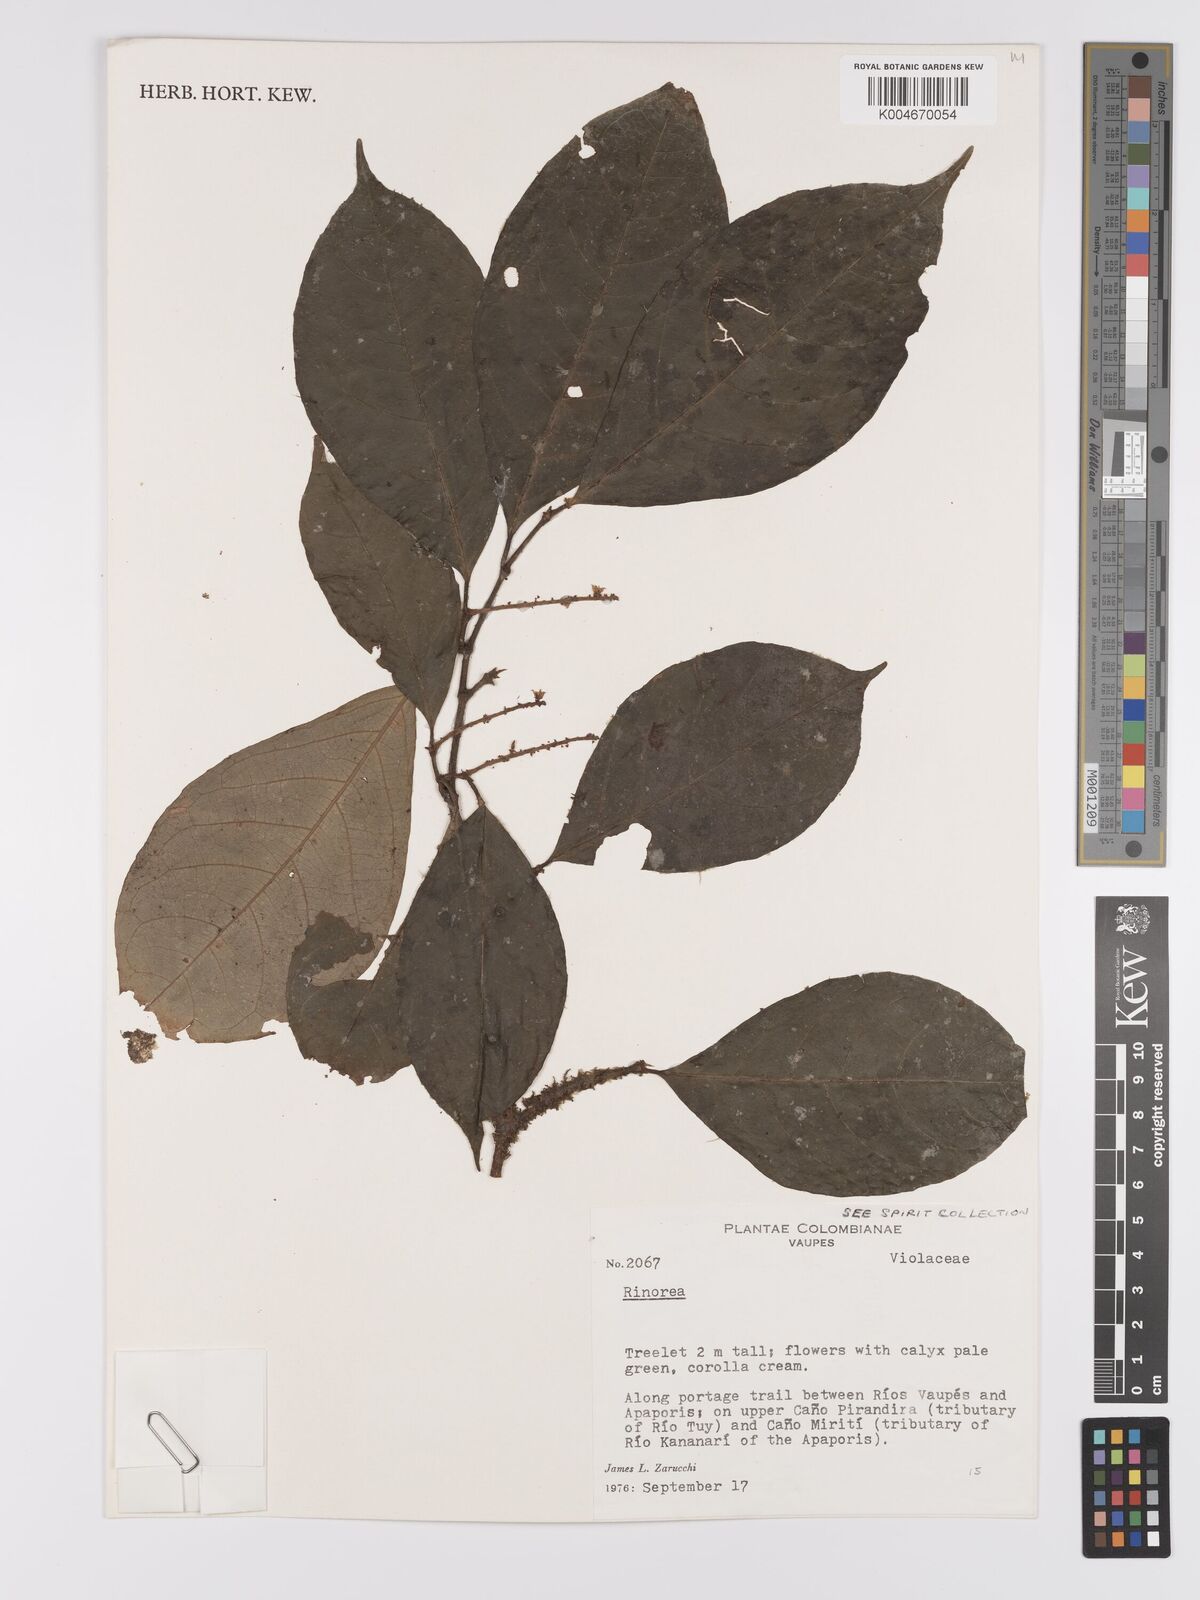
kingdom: Plantae
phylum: Tracheophyta
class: Magnoliopsida
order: Malpighiales
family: Violaceae
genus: Rinorea
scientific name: Rinorea
